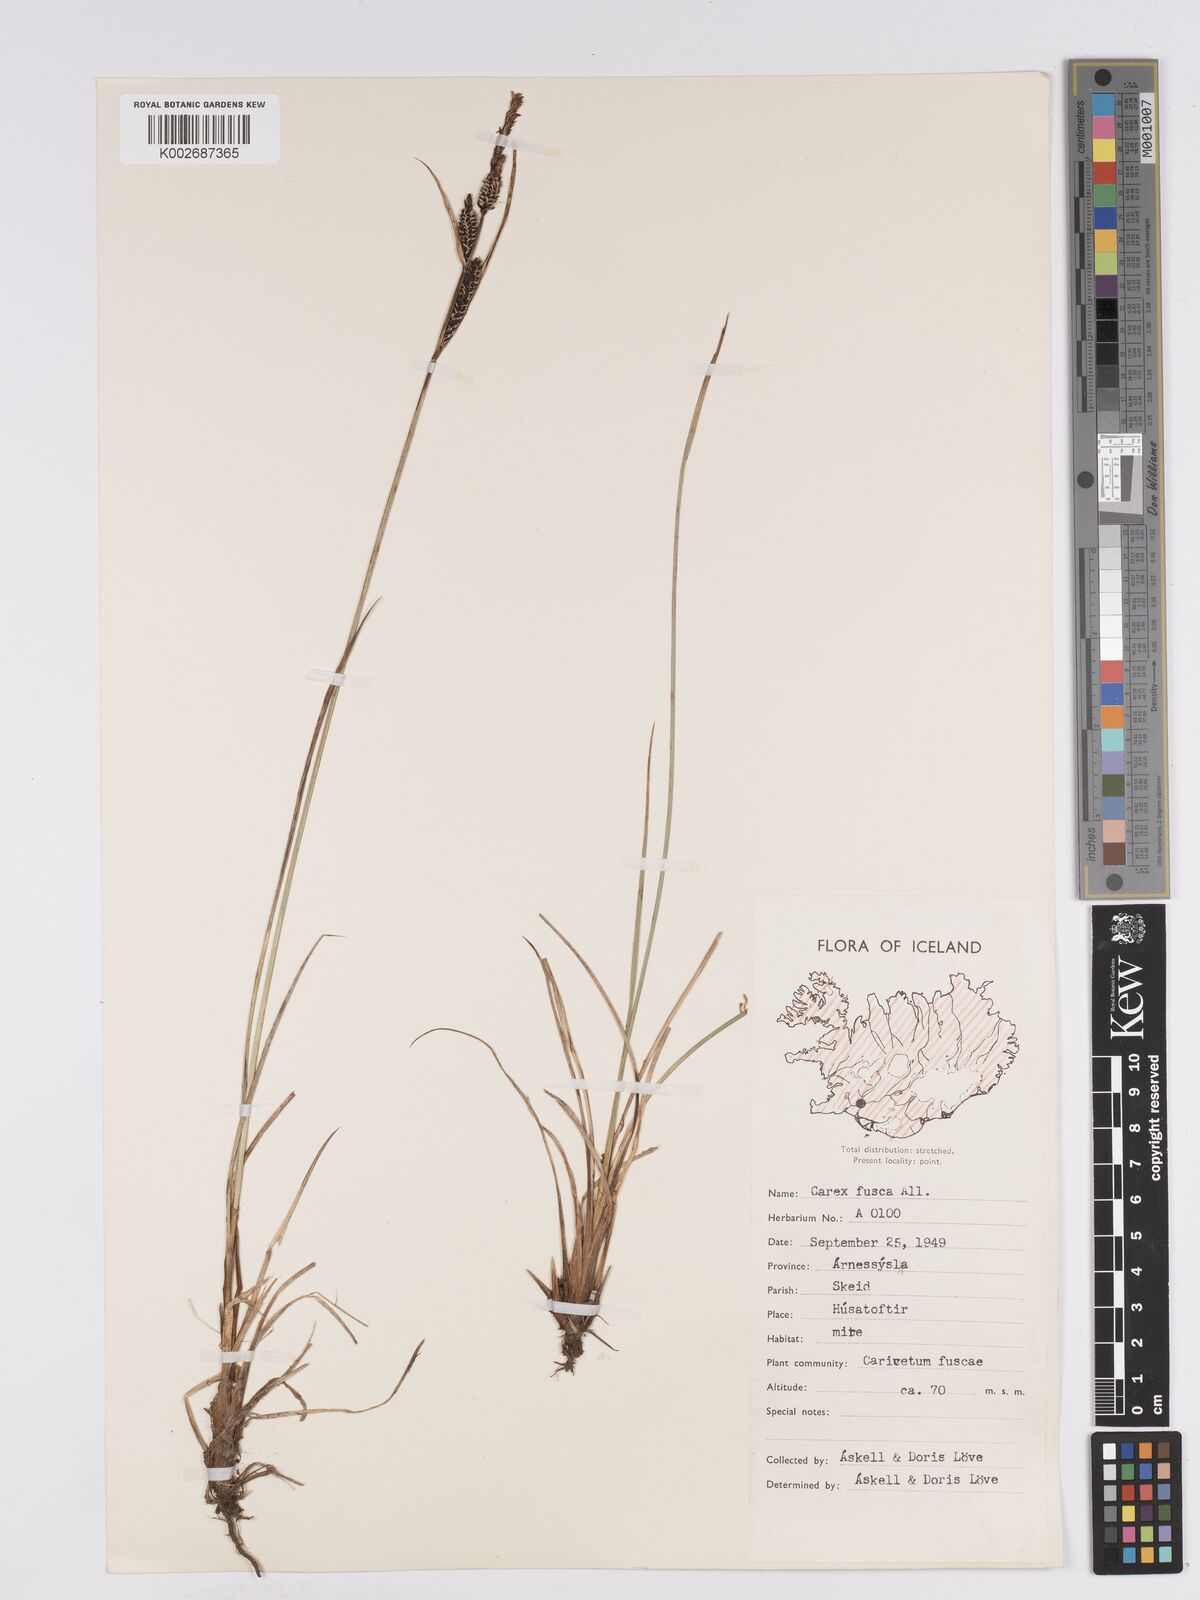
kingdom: Plantae
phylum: Tracheophyta
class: Liliopsida
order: Poales
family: Cyperaceae
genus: Carex
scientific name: Carex nigra
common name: Common sedge
